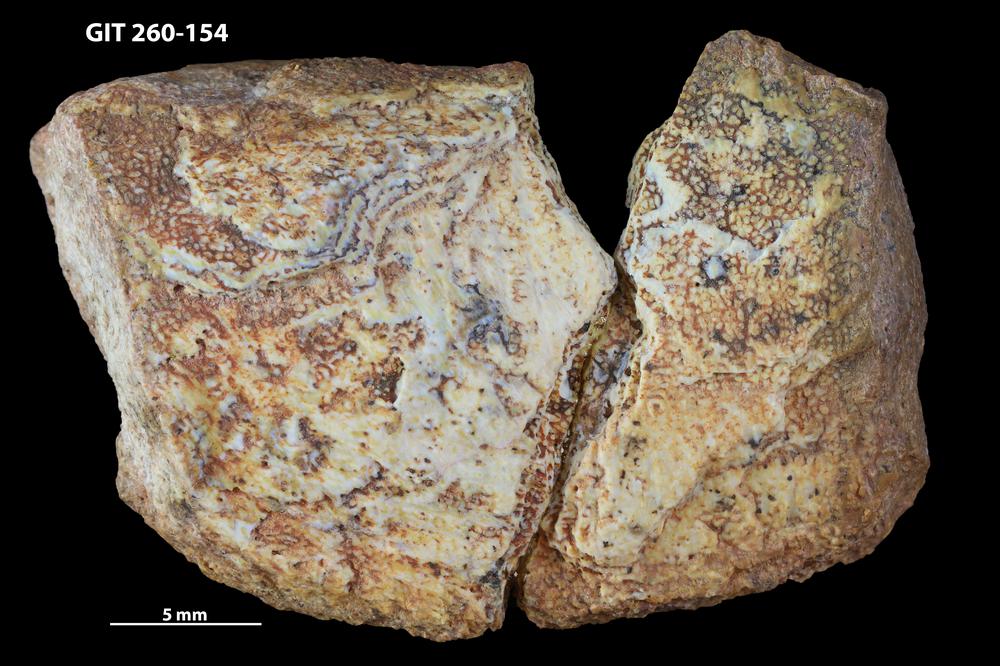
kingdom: Animalia
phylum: Chordata
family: Homostiidae
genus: Homostius
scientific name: Homostius
